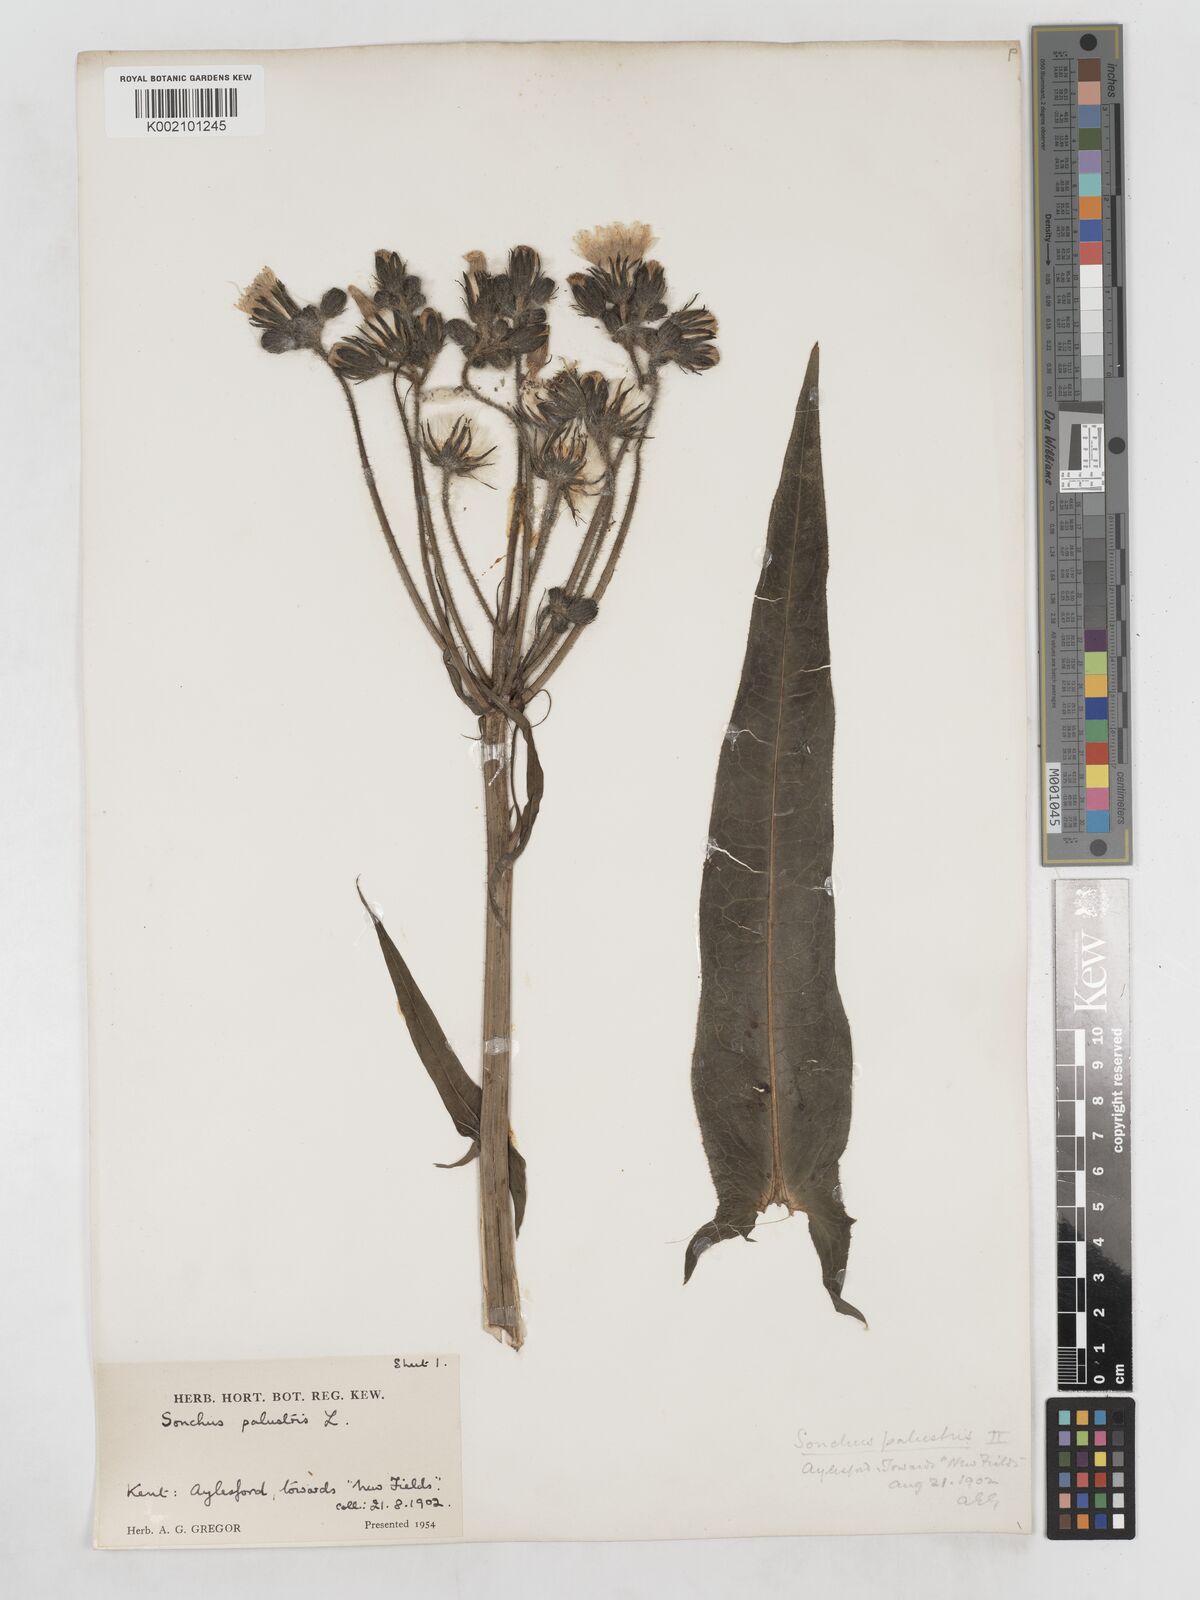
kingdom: Plantae
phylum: Tracheophyta
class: Magnoliopsida
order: Asterales
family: Asteraceae
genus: Sonchus
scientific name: Sonchus palustris
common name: Marsh sow-thistle
